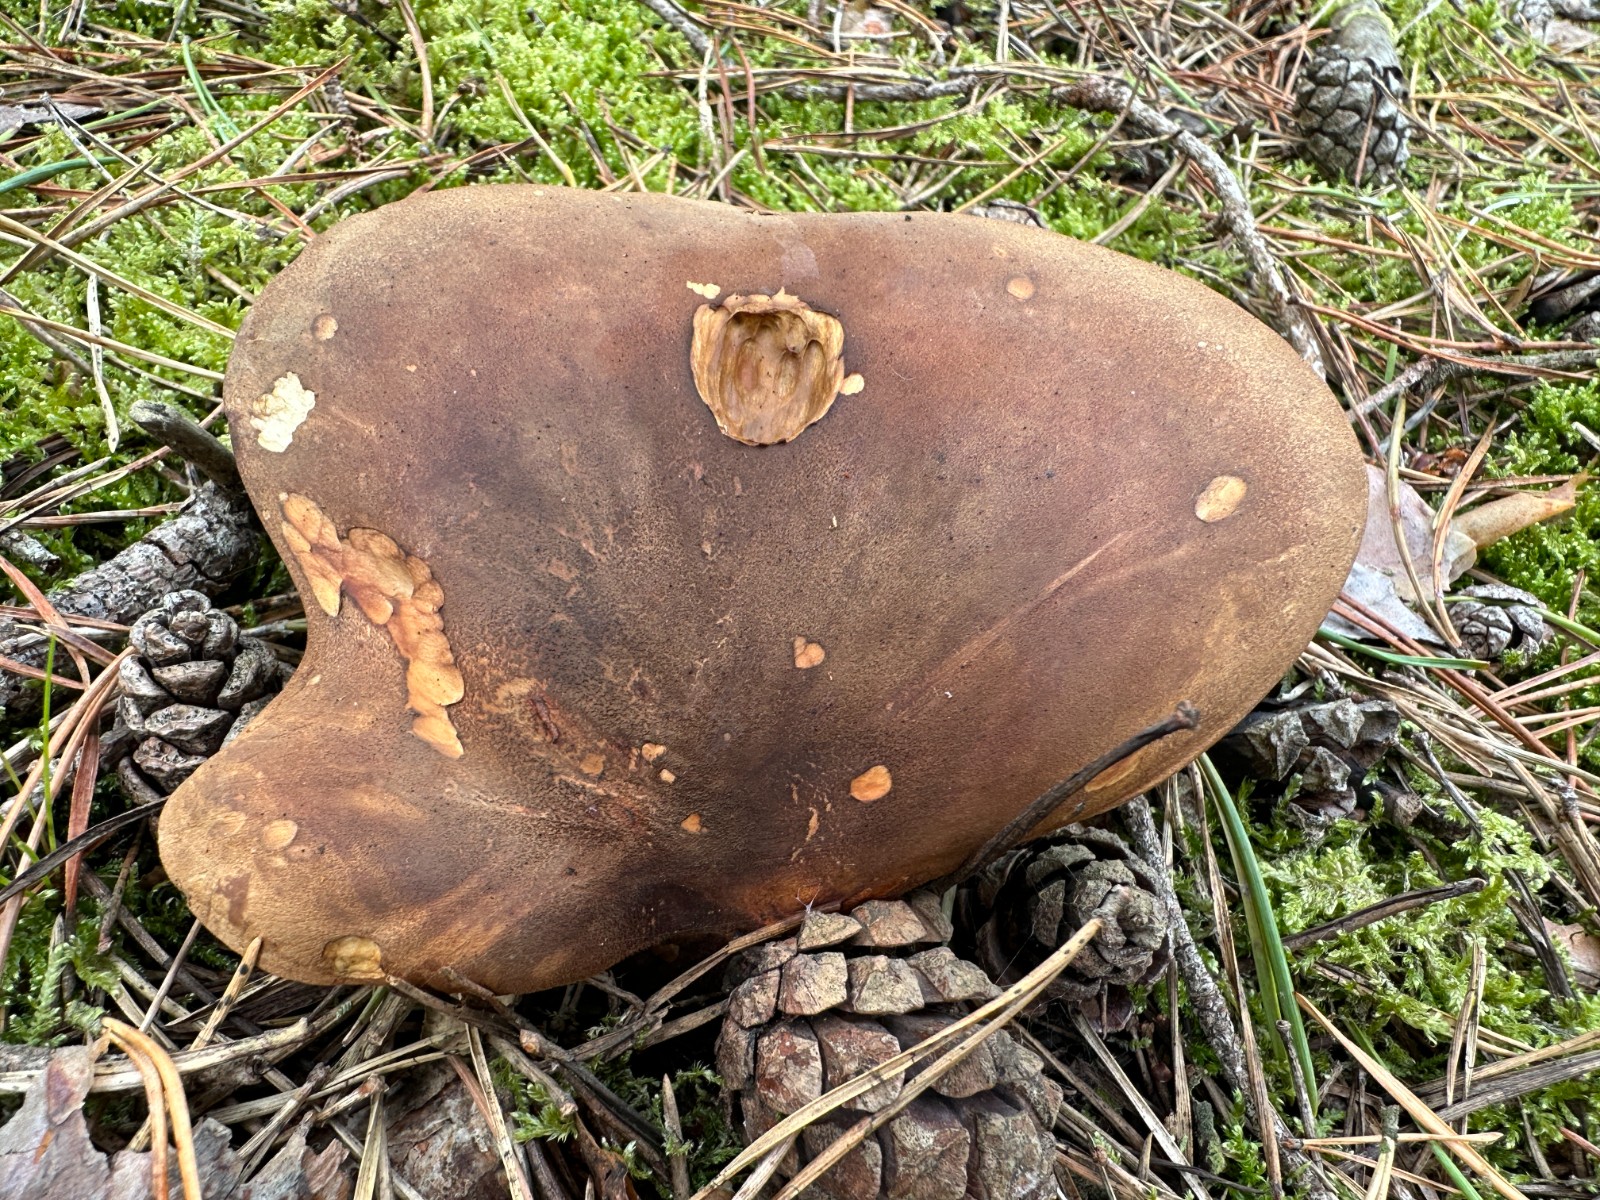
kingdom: Fungi
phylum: Basidiomycota
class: Agaricomycetes
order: Boletales
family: Tapinellaceae
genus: Tapinella
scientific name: Tapinella atrotomentosa
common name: sortfiltet viftesvamp
